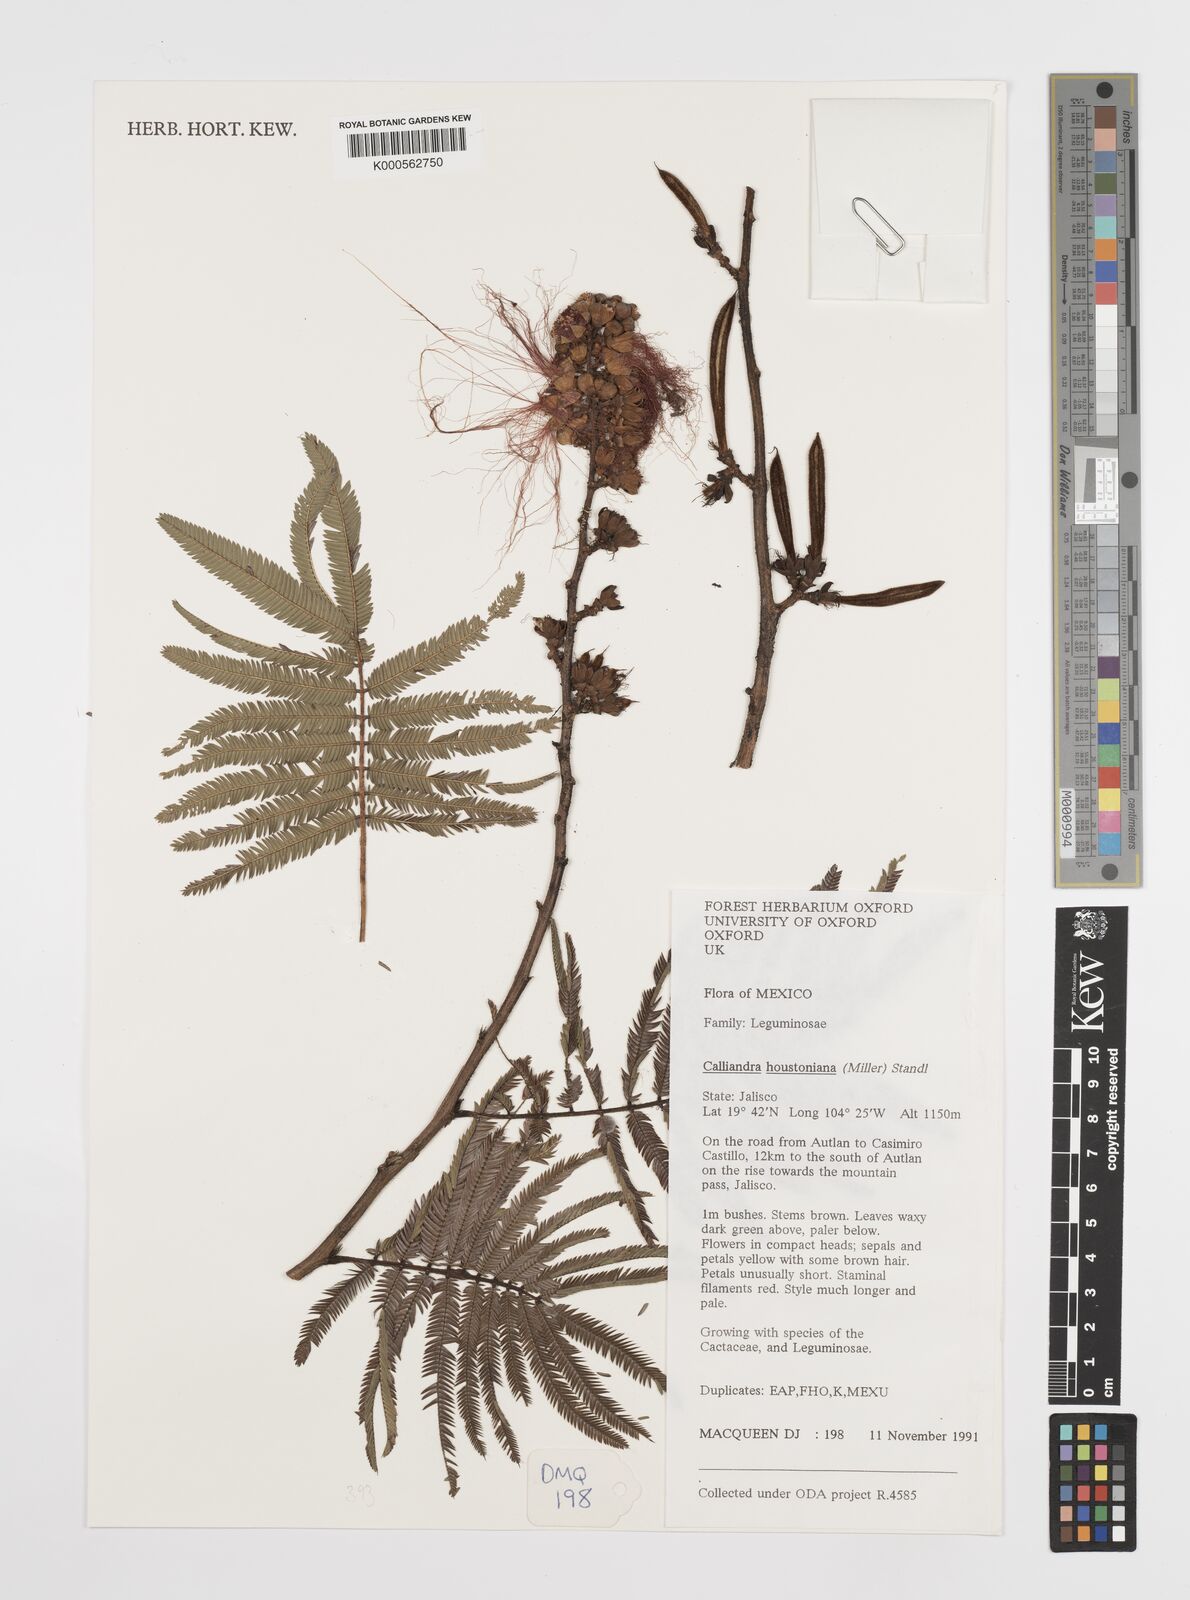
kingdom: Plantae
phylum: Tracheophyta
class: Magnoliopsida
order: Fabales
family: Fabaceae
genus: Calliandra
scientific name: Calliandra houstoniana
